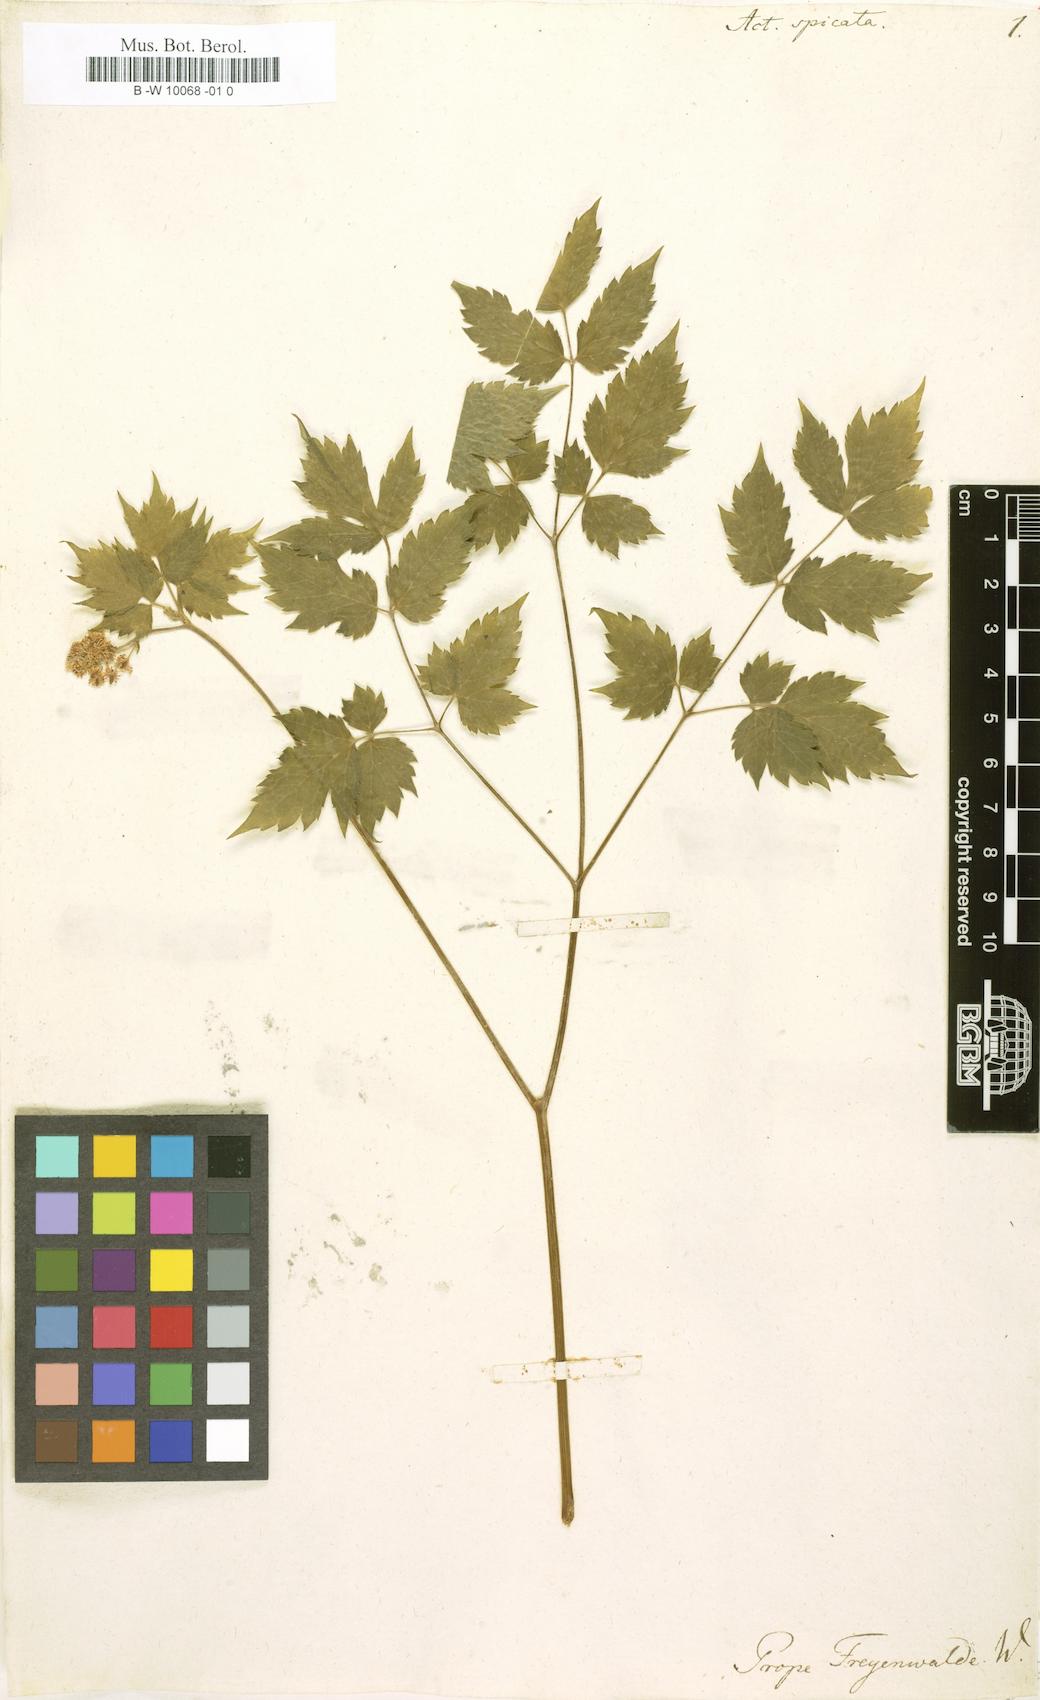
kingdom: Plantae
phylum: Tracheophyta
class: Magnoliopsida
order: Ranunculales
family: Ranunculaceae
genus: Actaea
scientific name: Actaea spicata
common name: Baneberry
